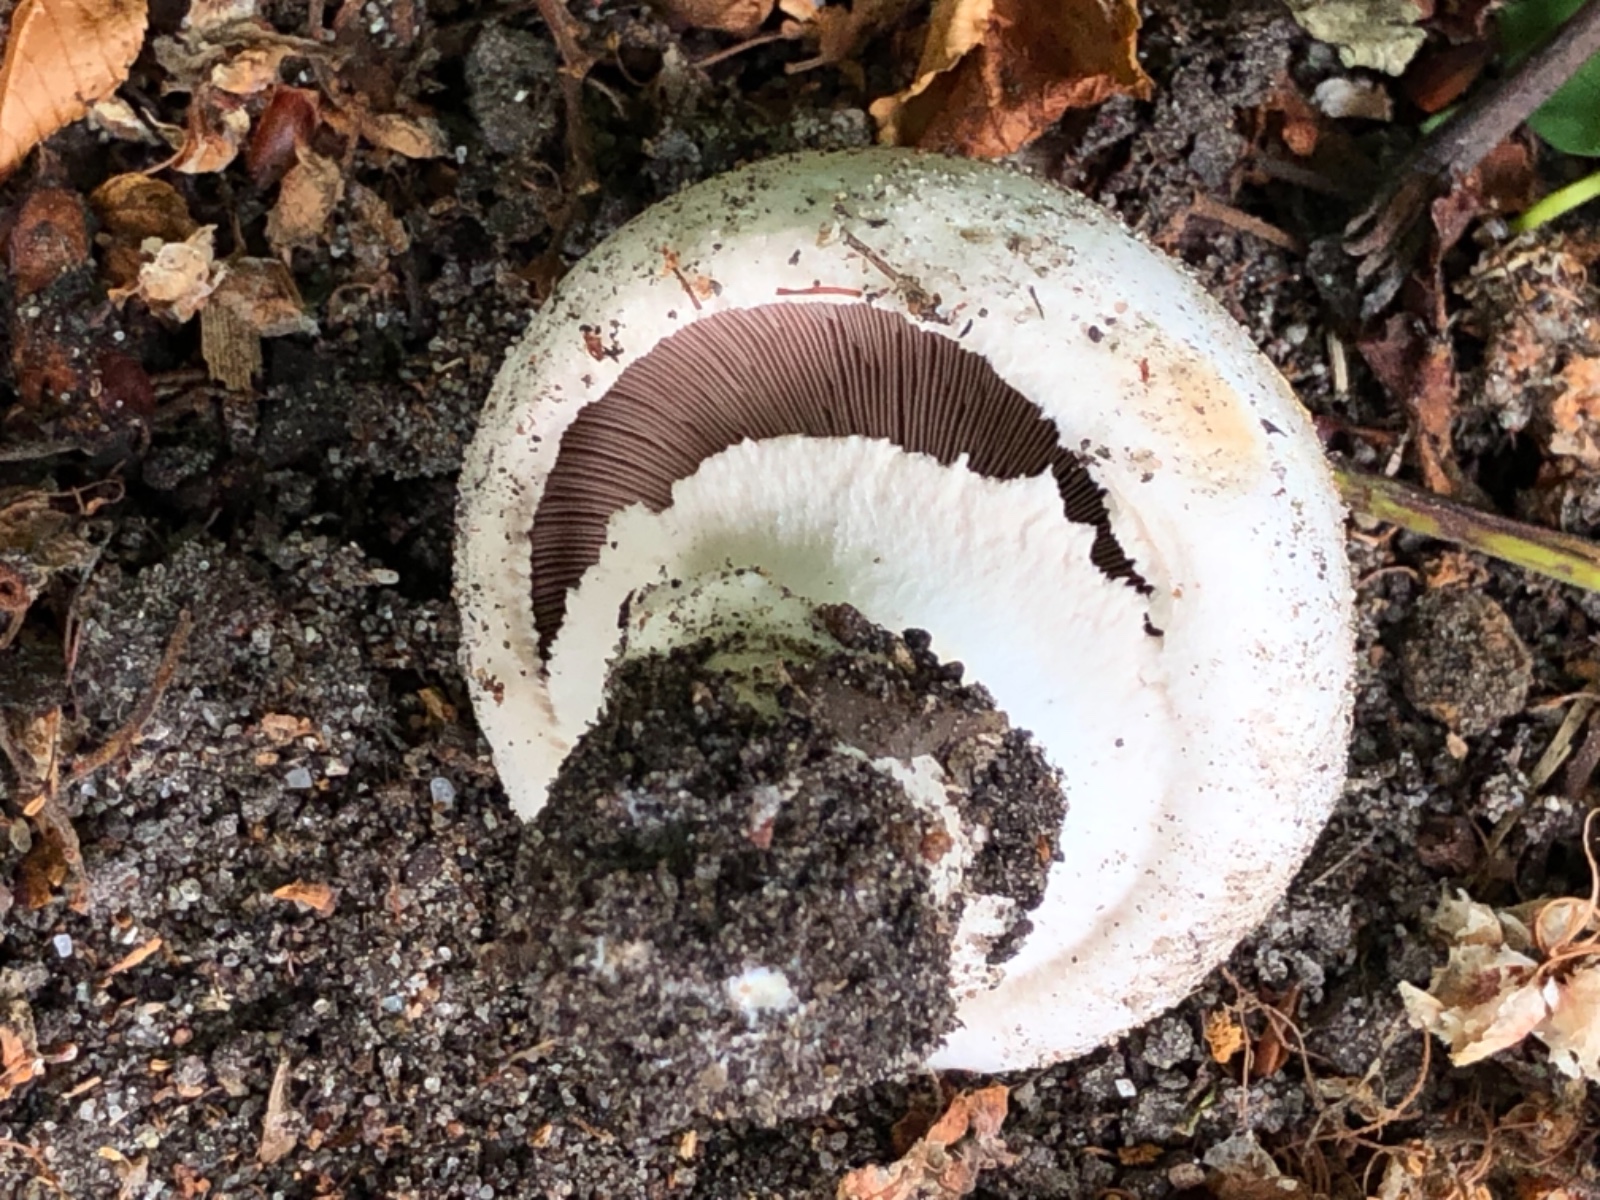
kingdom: Fungi
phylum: Basidiomycota
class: Agaricomycetes
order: Agaricales
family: Agaricaceae
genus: Agaricus
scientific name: Agaricus xanthodermus
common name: karbol-champignon
